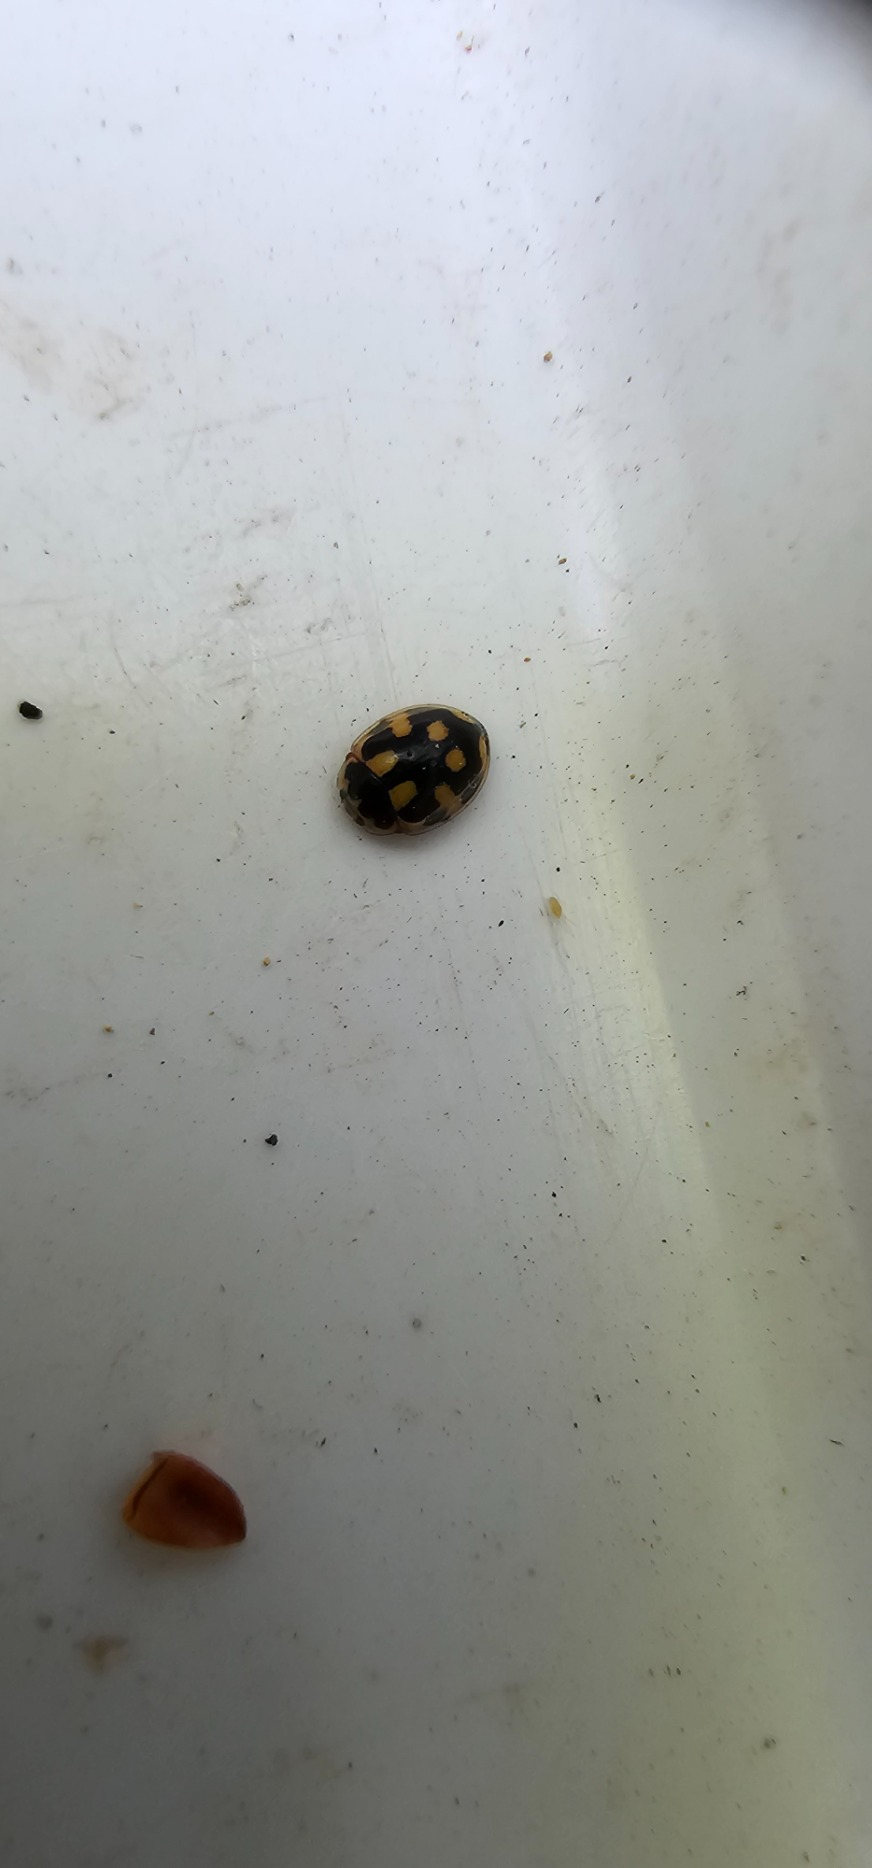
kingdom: Animalia
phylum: Arthropoda
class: Insecta
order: Coleoptera
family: Coccinellidae
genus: Propylaea
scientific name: Propylaea quatuordecimpunctata
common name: Skakbræt
